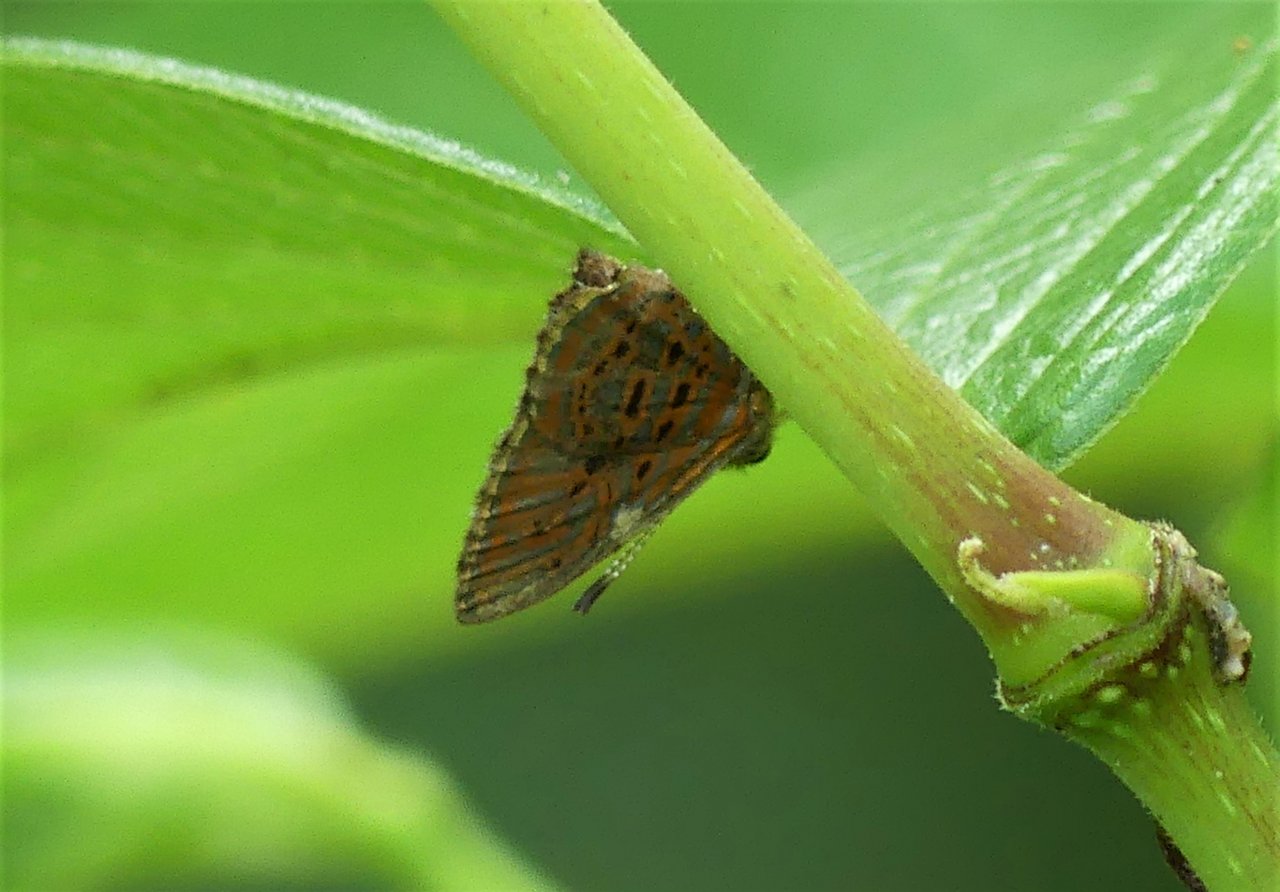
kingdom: Animalia
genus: Charis
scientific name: Charis gamelia
